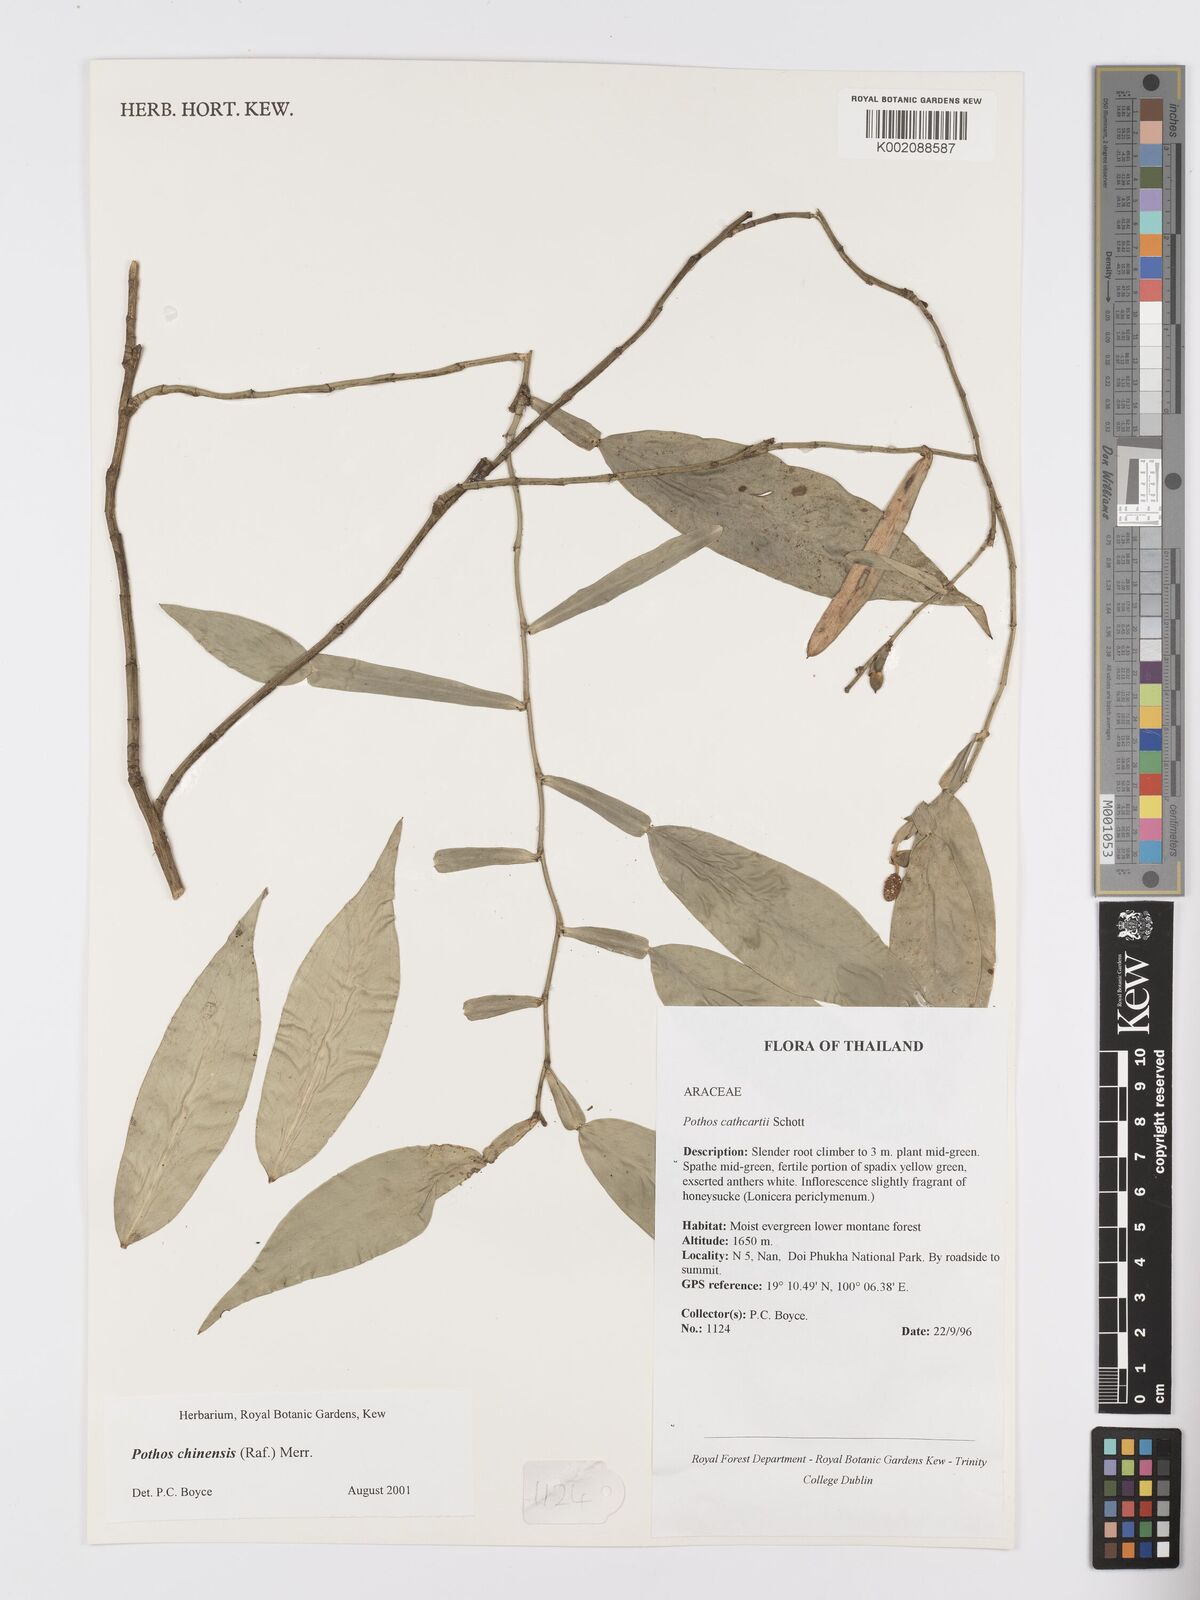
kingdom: Plantae
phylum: Tracheophyta
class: Liliopsida
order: Alismatales
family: Araceae
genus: Pothos
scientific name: Pothos chinensis
